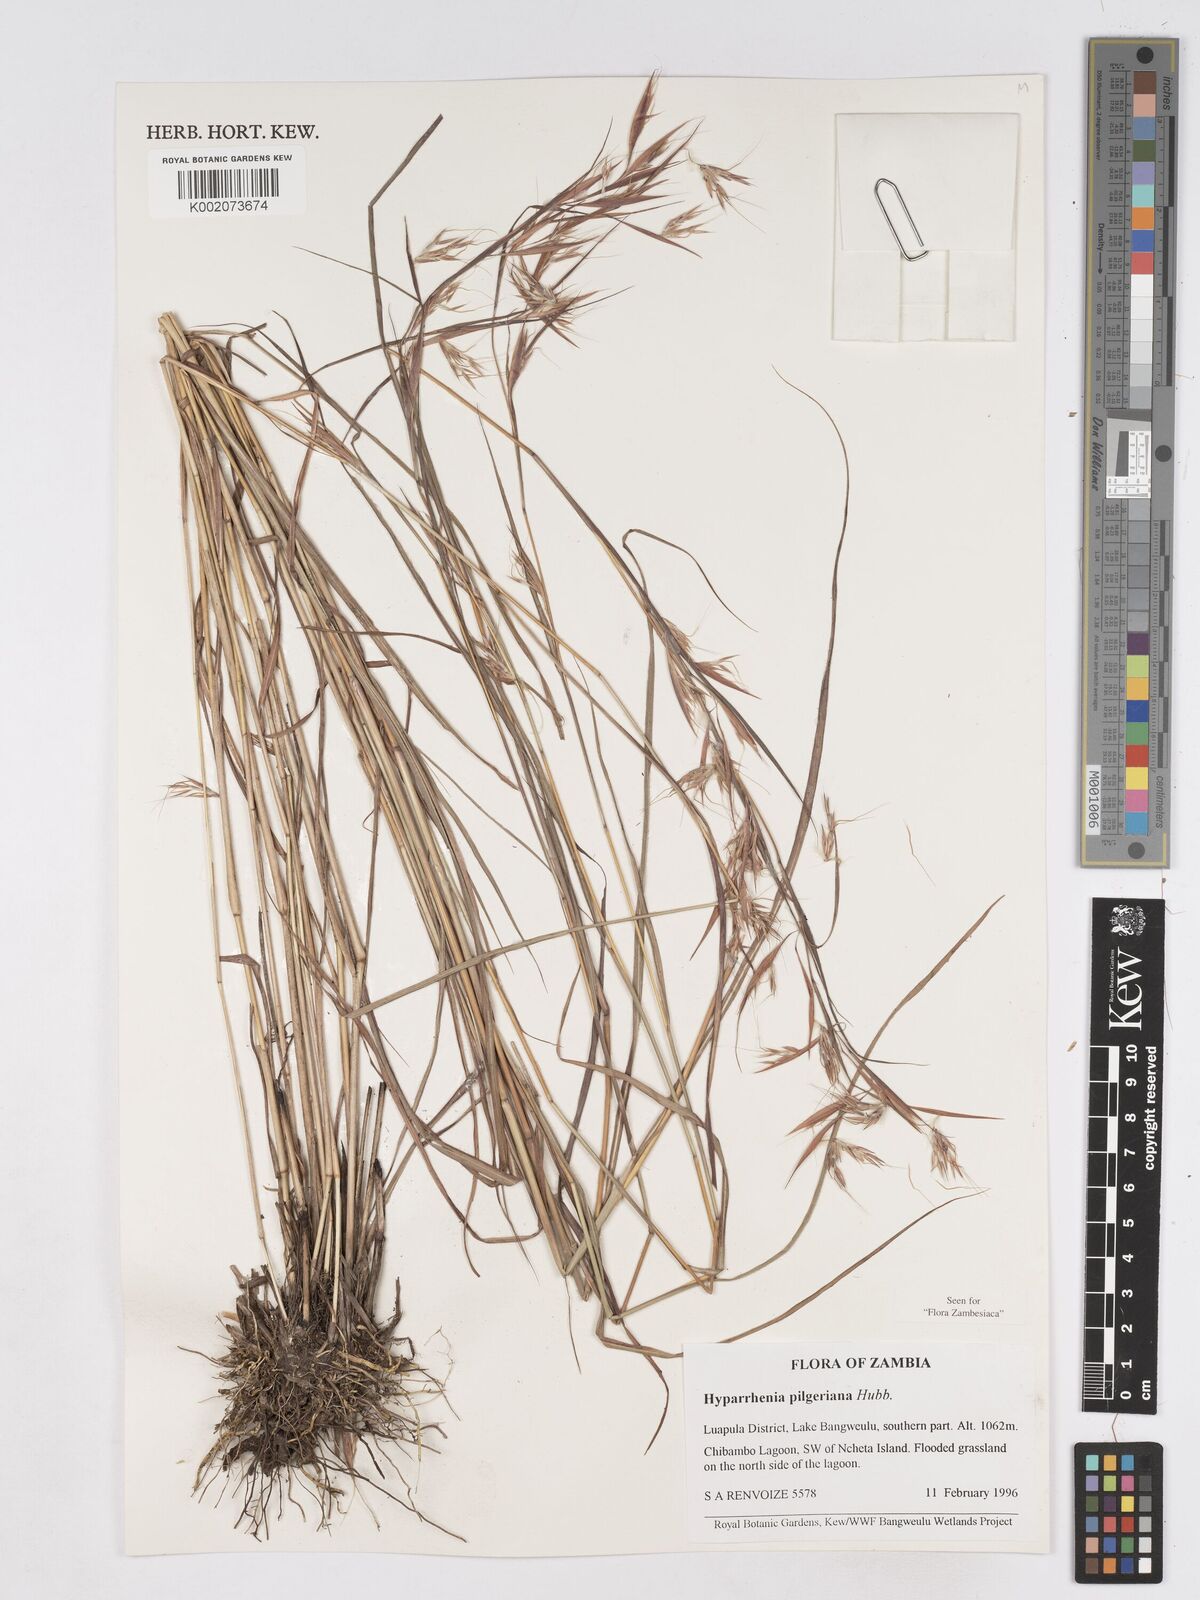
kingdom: Plantae
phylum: Tracheophyta
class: Liliopsida
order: Poales
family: Poaceae
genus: Hyparrhenia
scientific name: Hyparrhenia pilgeriana
